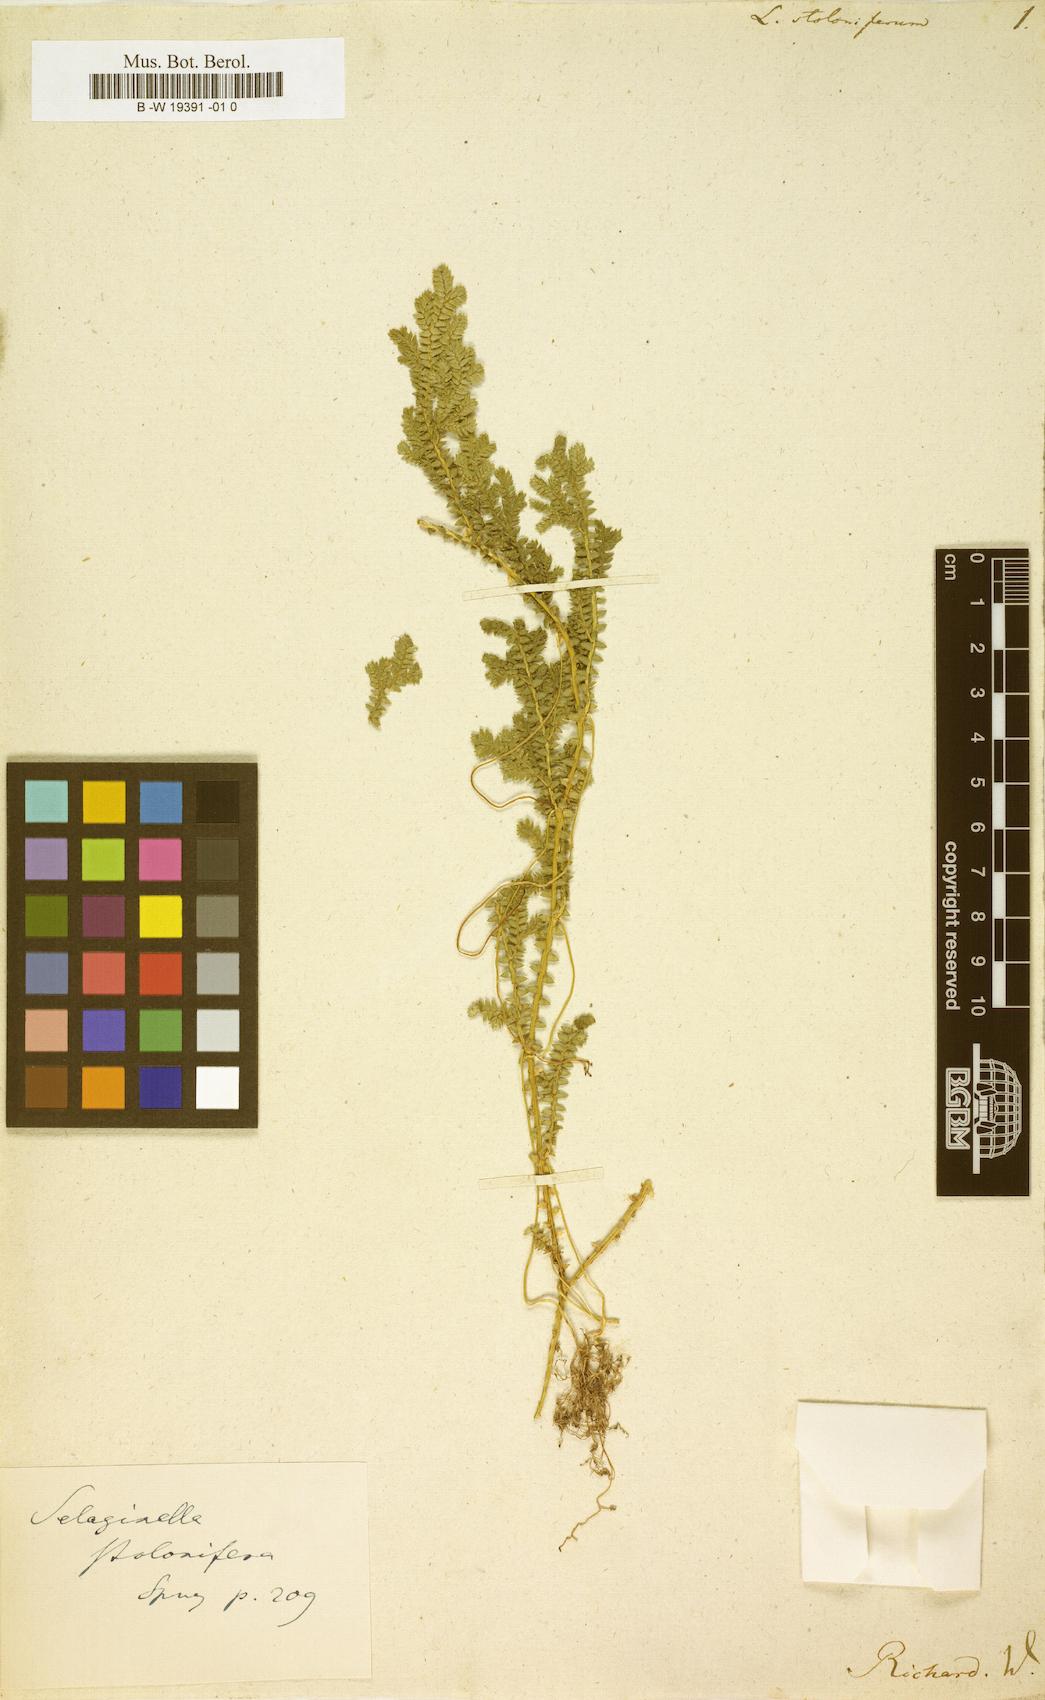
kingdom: Plantae
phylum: Tracheophyta
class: Lycopodiopsida
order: Selaginellales
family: Selaginellaceae
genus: Selaginella
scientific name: Selaginella plumosa
